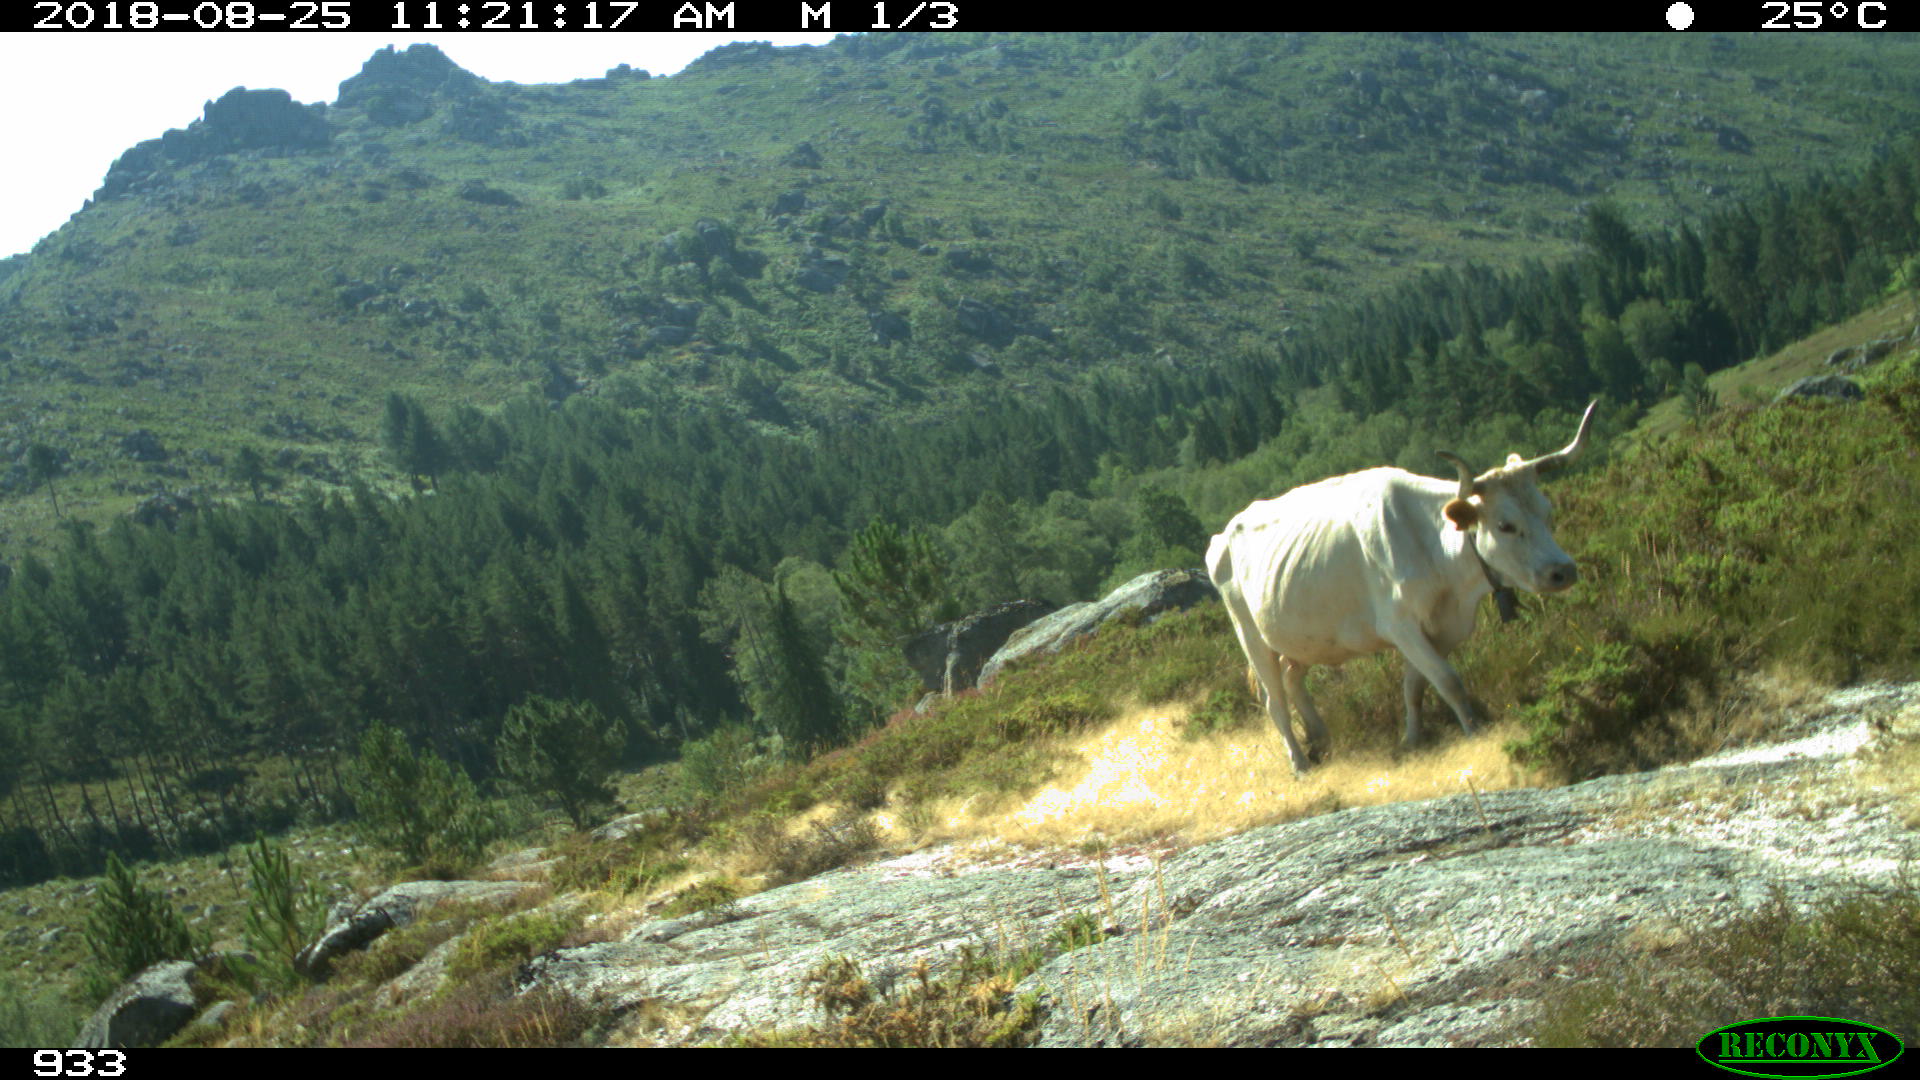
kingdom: Animalia
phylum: Chordata
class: Mammalia
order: Artiodactyla
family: Bovidae
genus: Bos
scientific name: Bos taurus
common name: Domesticated cattle
